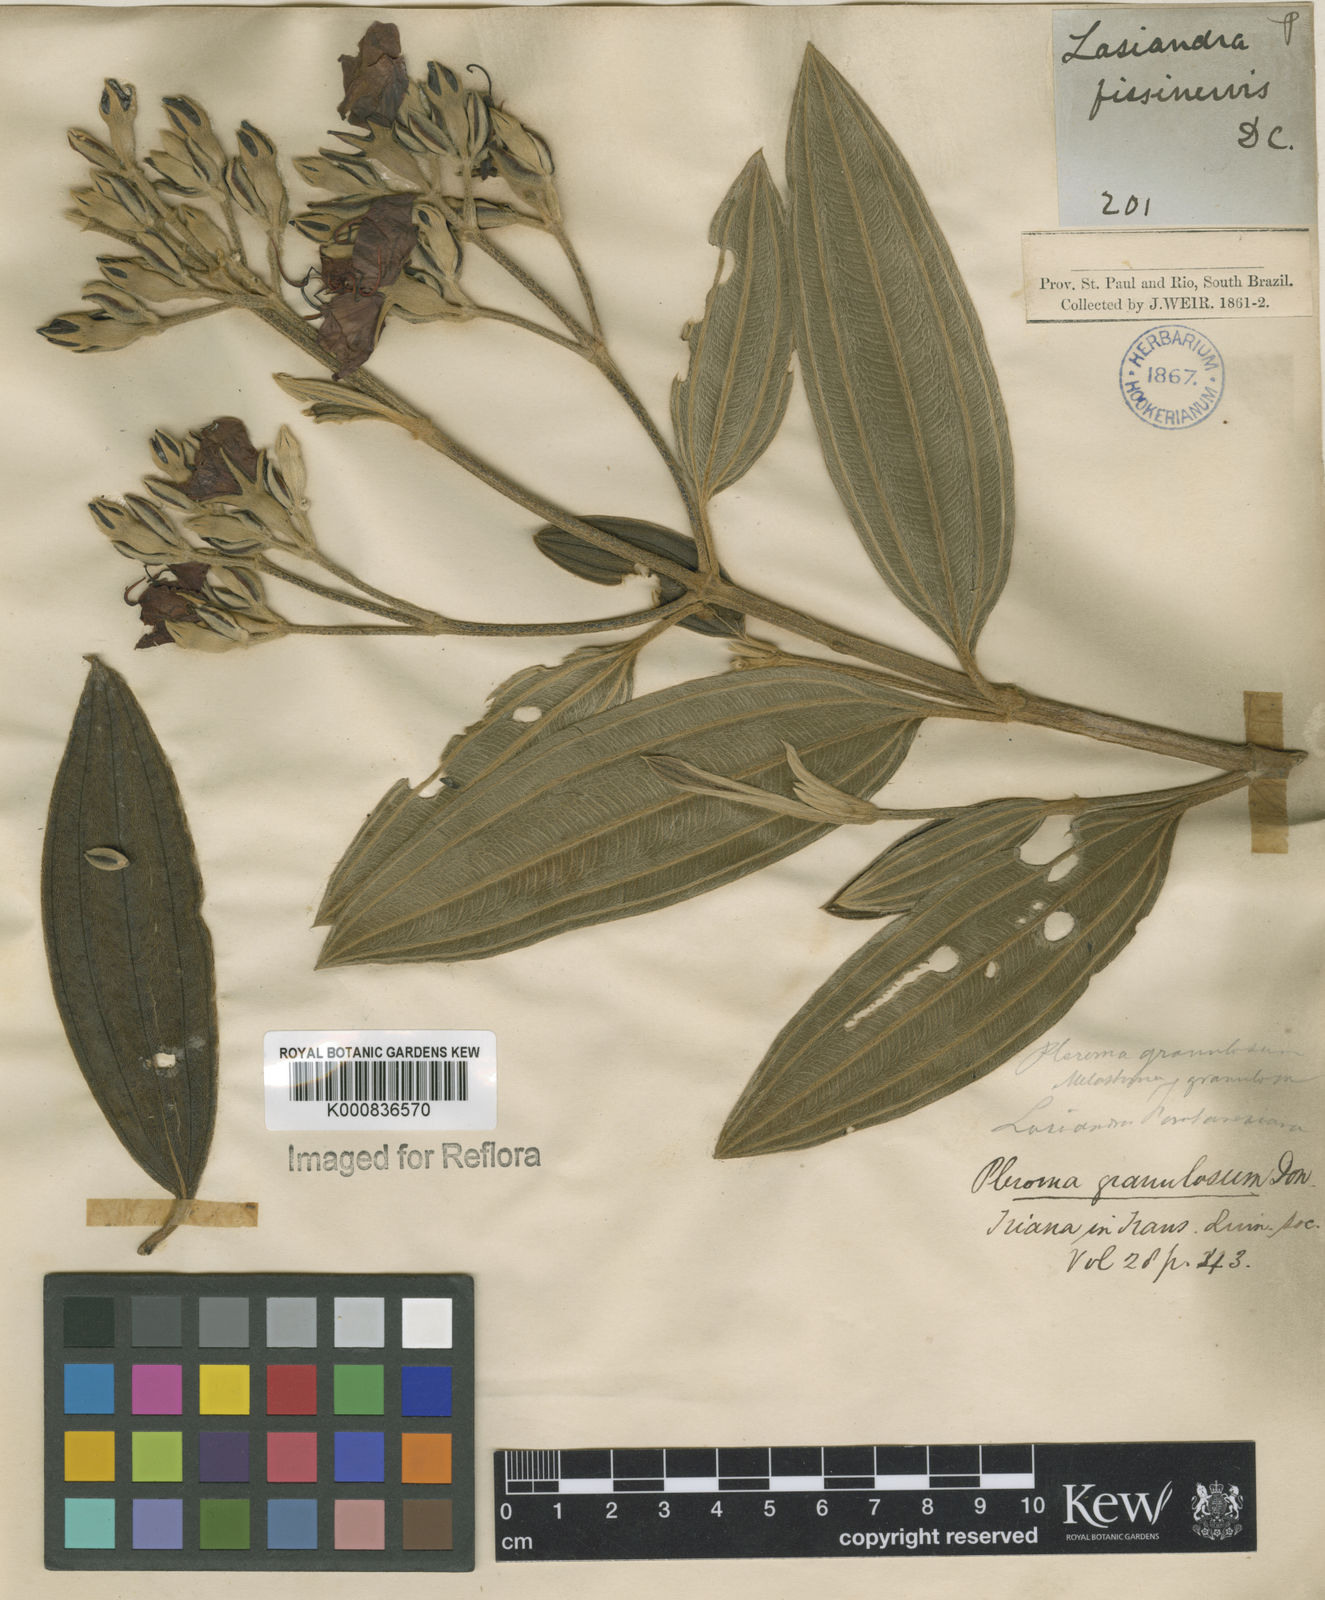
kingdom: Plantae
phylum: Tracheophyta
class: Magnoliopsida
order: Myrtales
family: Melastomataceae
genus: Pleroma
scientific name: Pleroma stenocarpum
